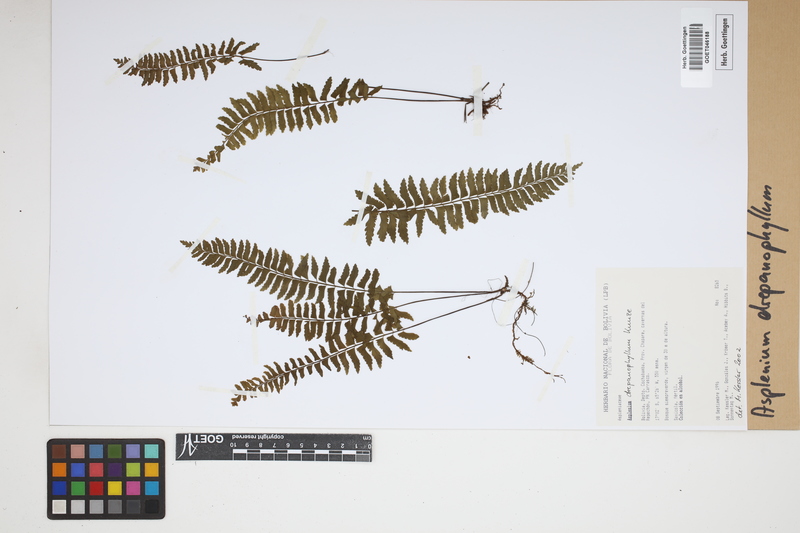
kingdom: Plantae
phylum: Tracheophyta
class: Polypodiopsida
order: Polypodiales
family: Aspleniaceae
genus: Asplenium
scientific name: Asplenium drepanophyllum
